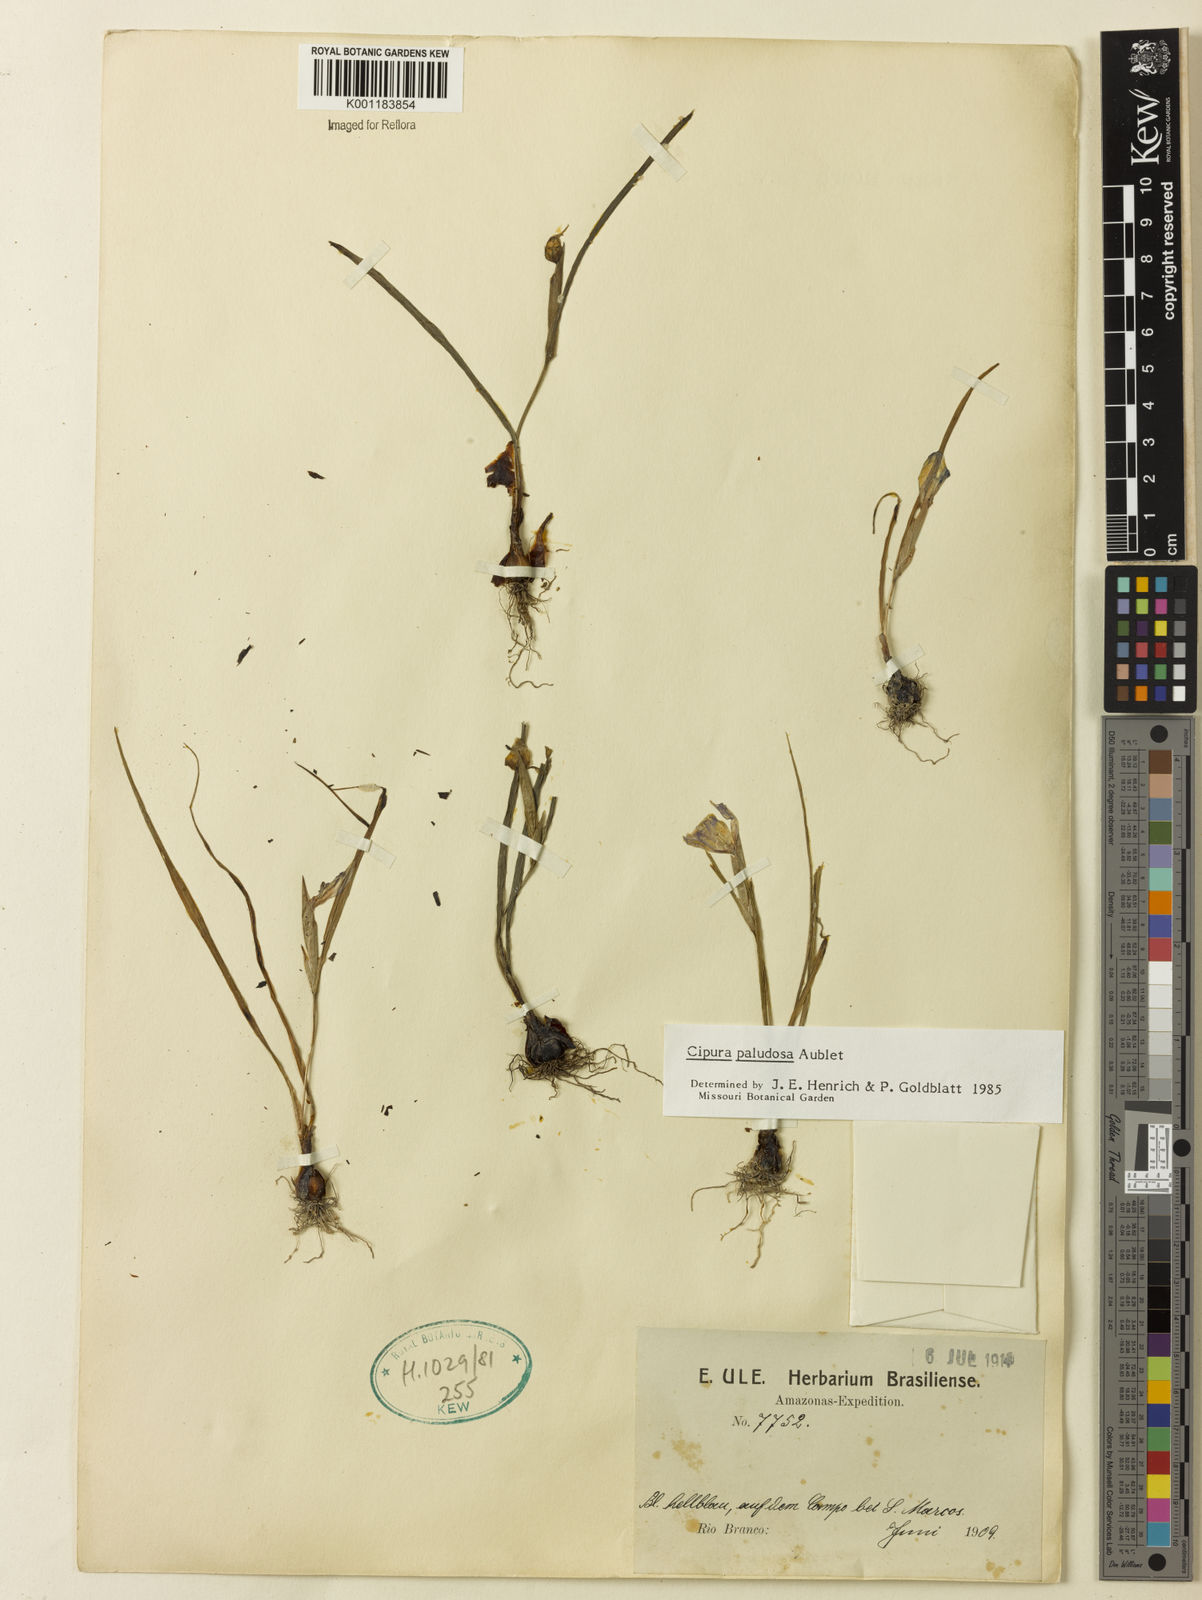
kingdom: Plantae
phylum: Tracheophyta
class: Liliopsida
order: Asparagales
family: Iridaceae
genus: Cipura
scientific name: Cipura paludosa
